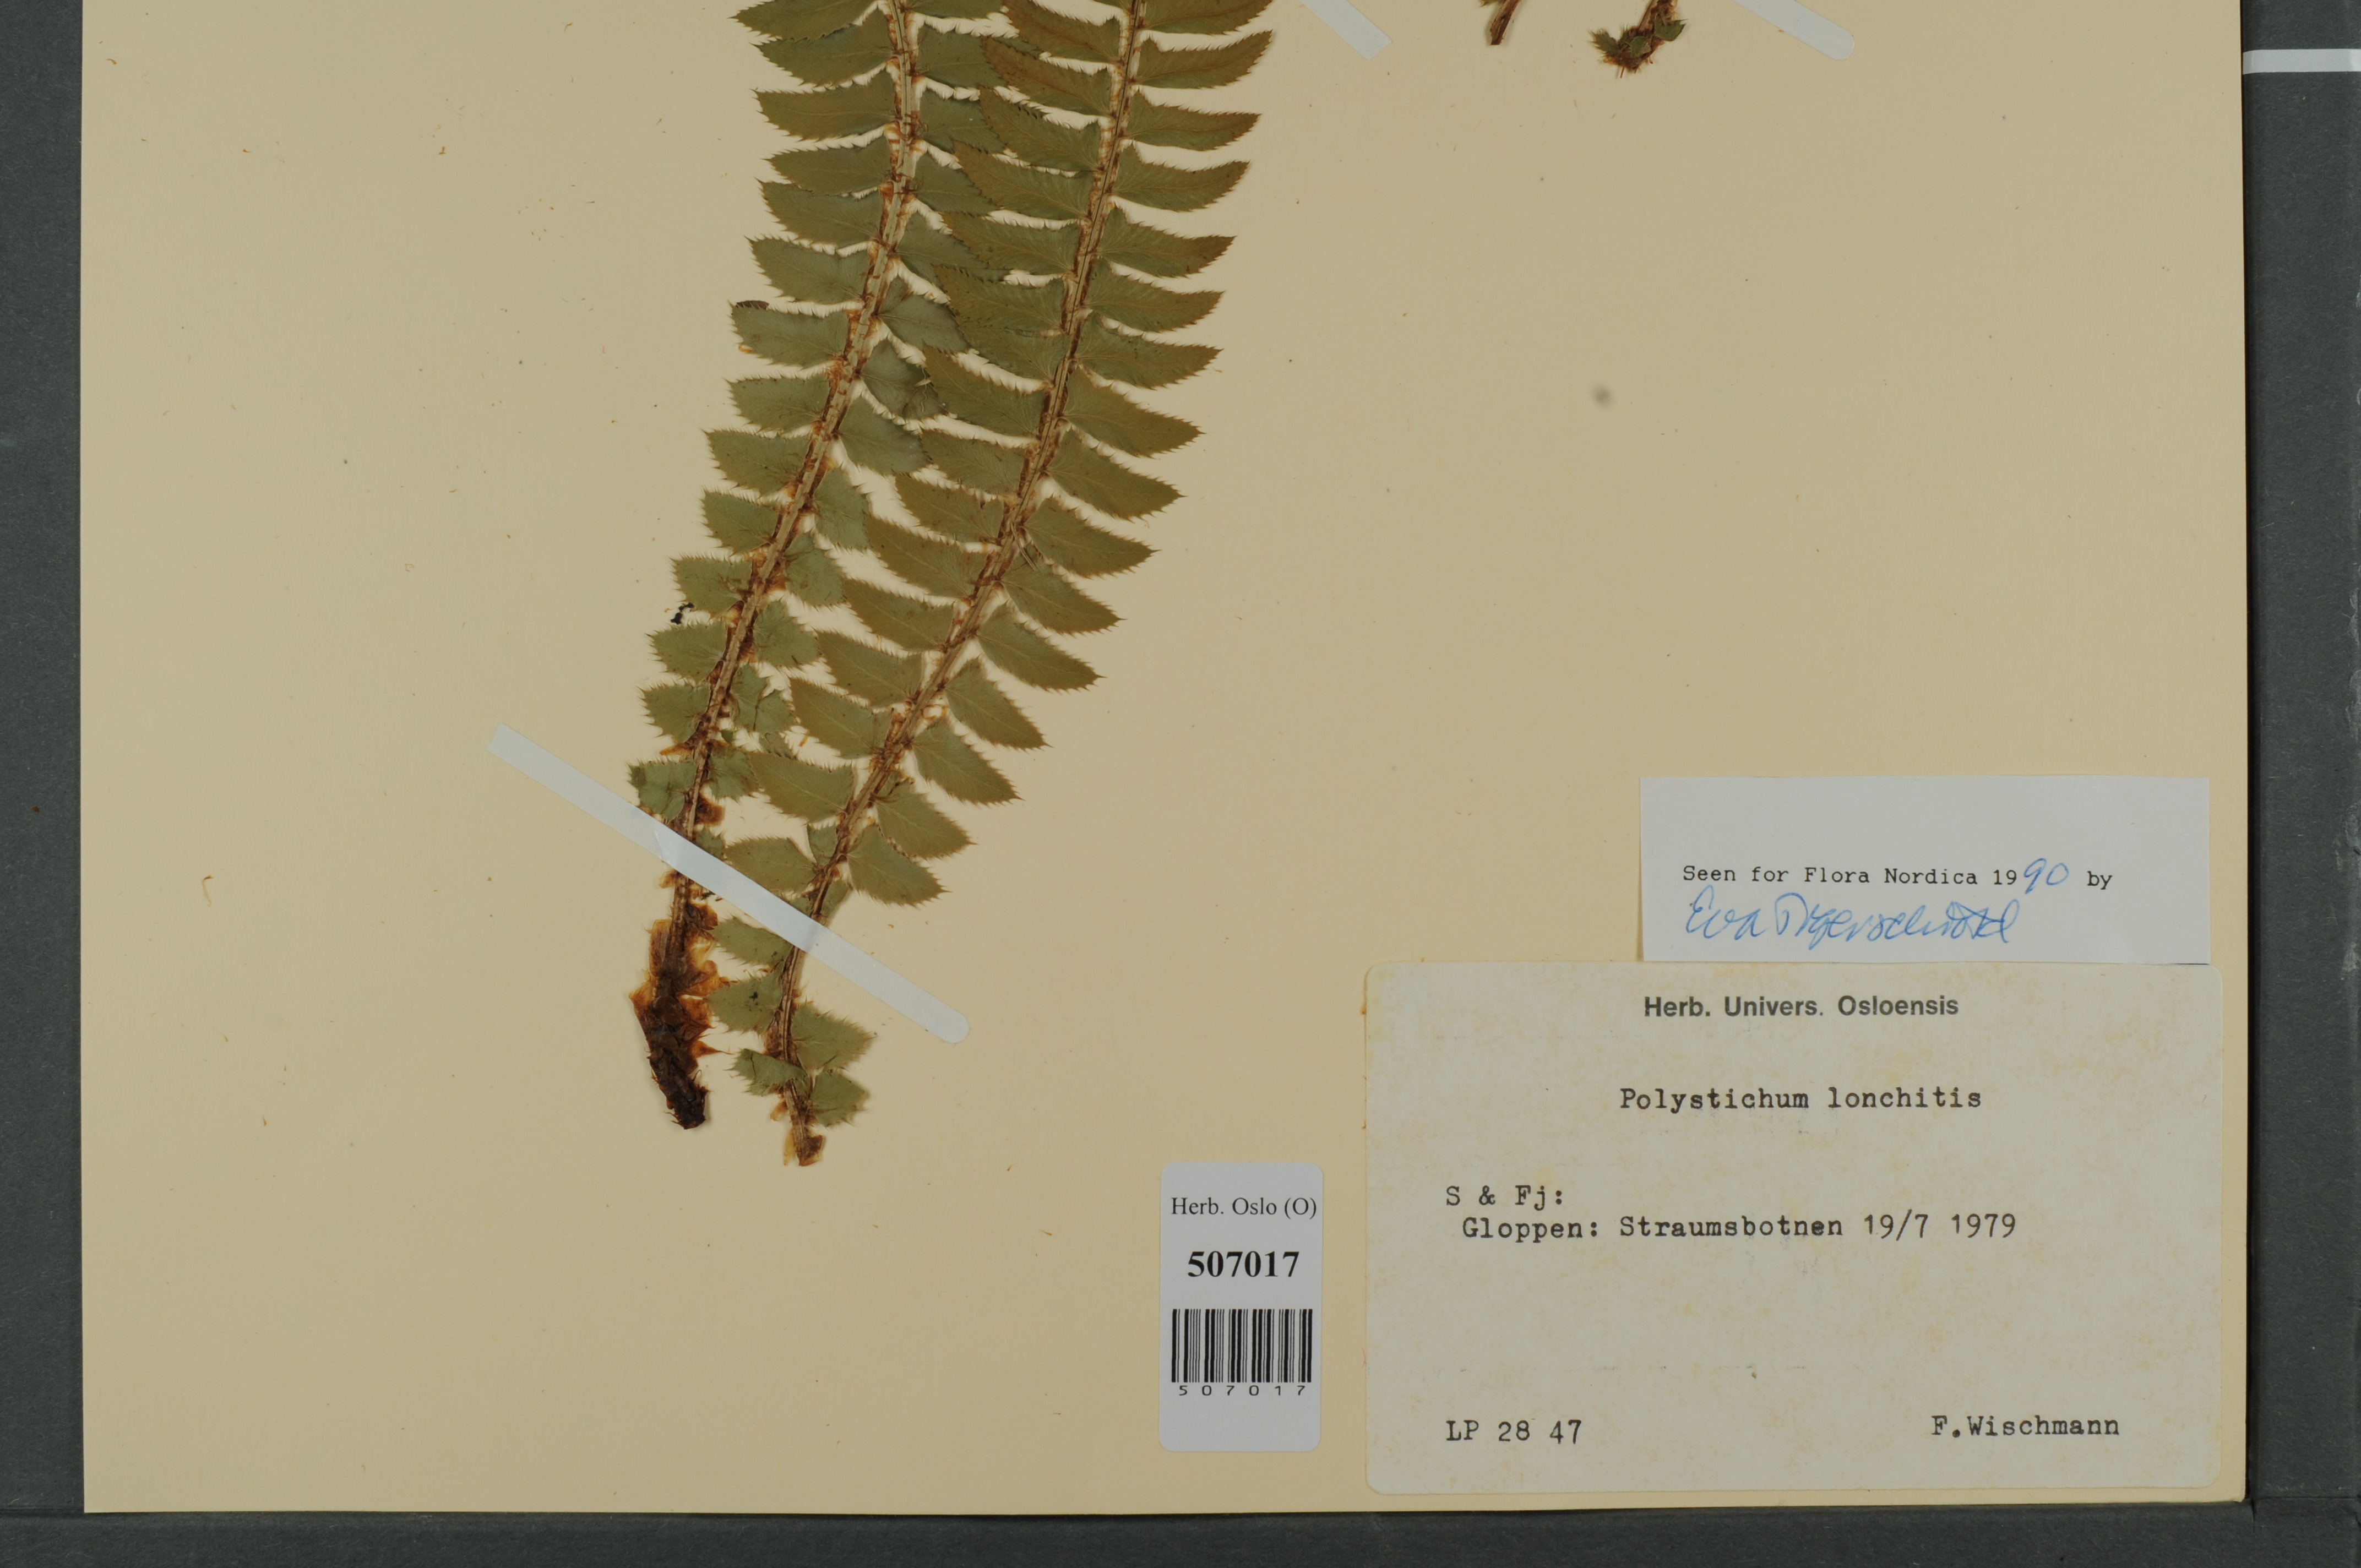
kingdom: Plantae
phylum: Tracheophyta
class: Polypodiopsida
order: Polypodiales
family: Dryopteridaceae
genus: Polystichum
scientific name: Polystichum lonchitis
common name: Holly fern
